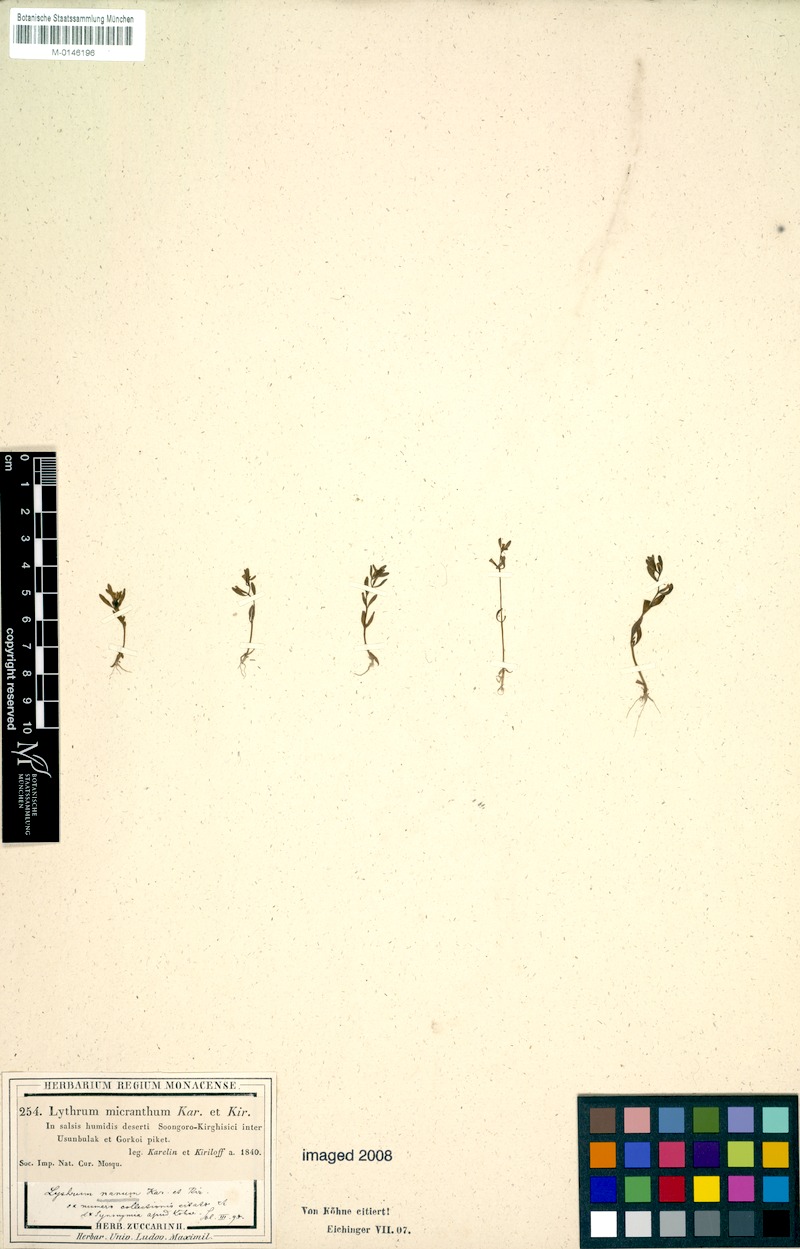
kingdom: Plantae
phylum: Tracheophyta
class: Magnoliopsida
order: Myrtales
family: Lythraceae
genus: Lythrum
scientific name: Lythrum nanum
